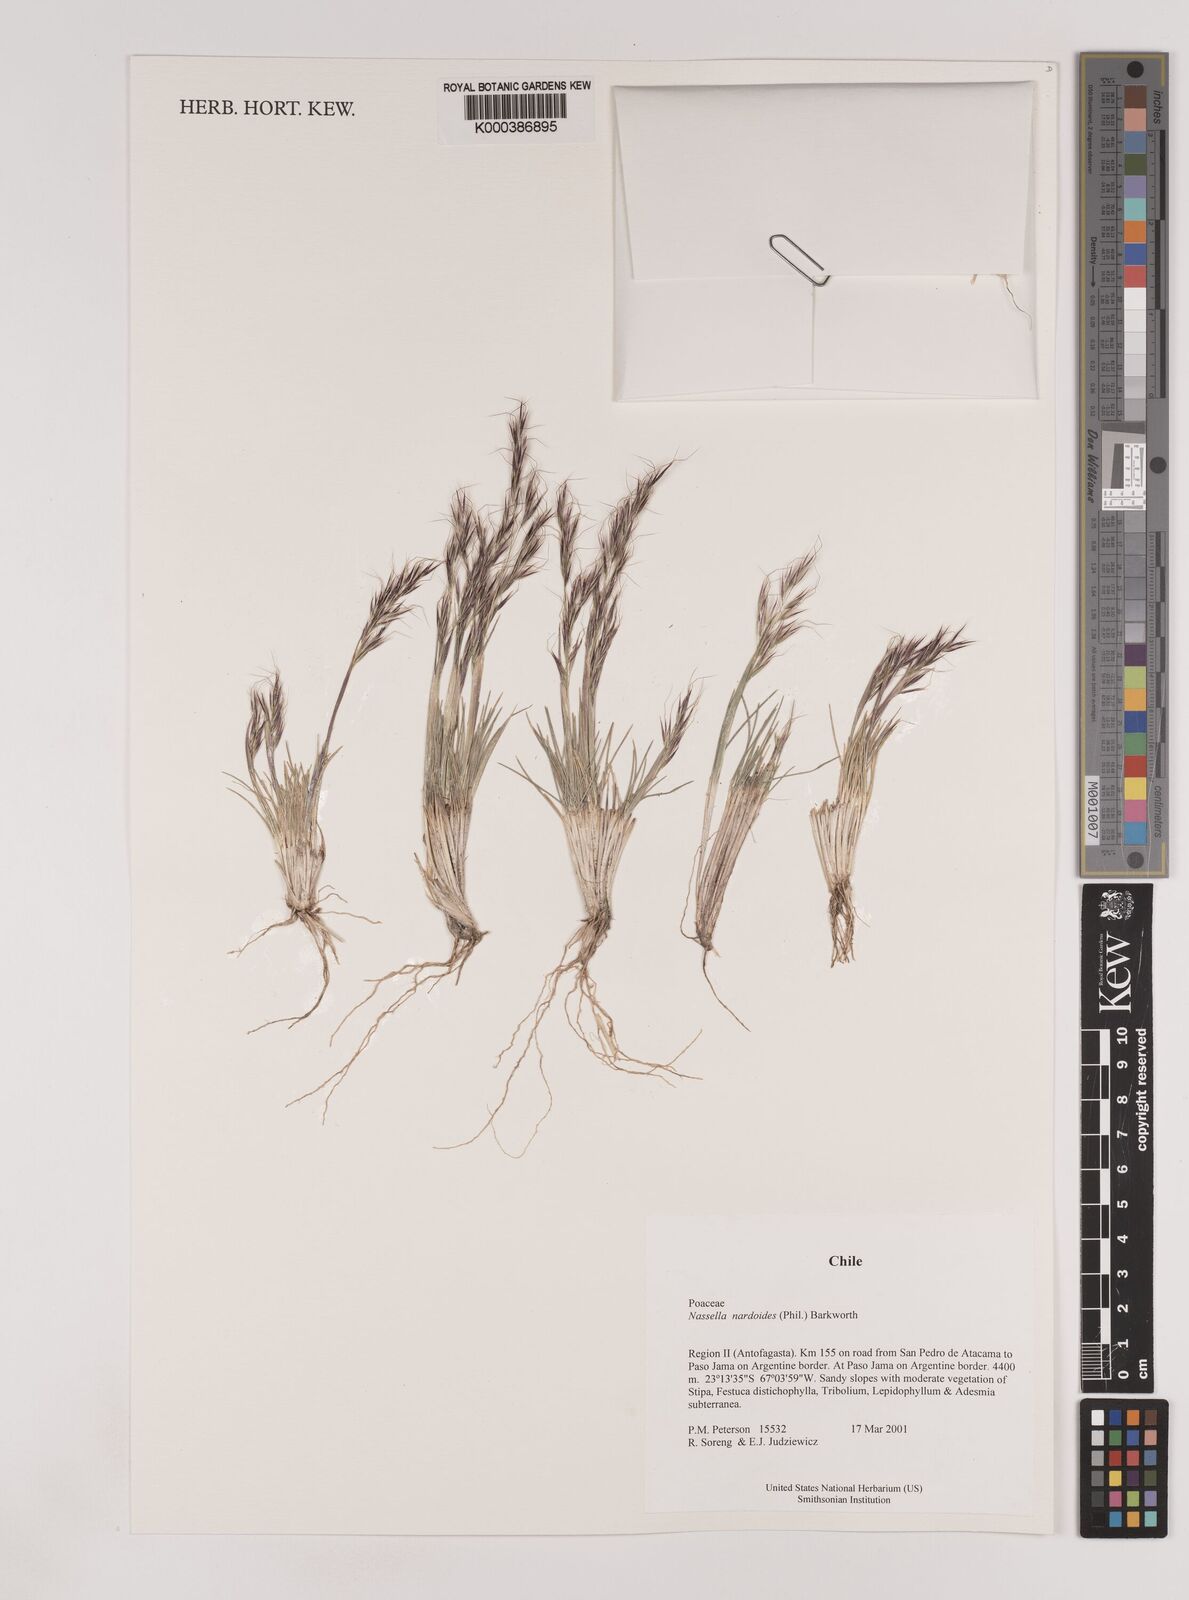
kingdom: Plantae
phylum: Tracheophyta
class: Liliopsida
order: Poales
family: Poaceae
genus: Nassella
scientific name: Nassella nardoides
